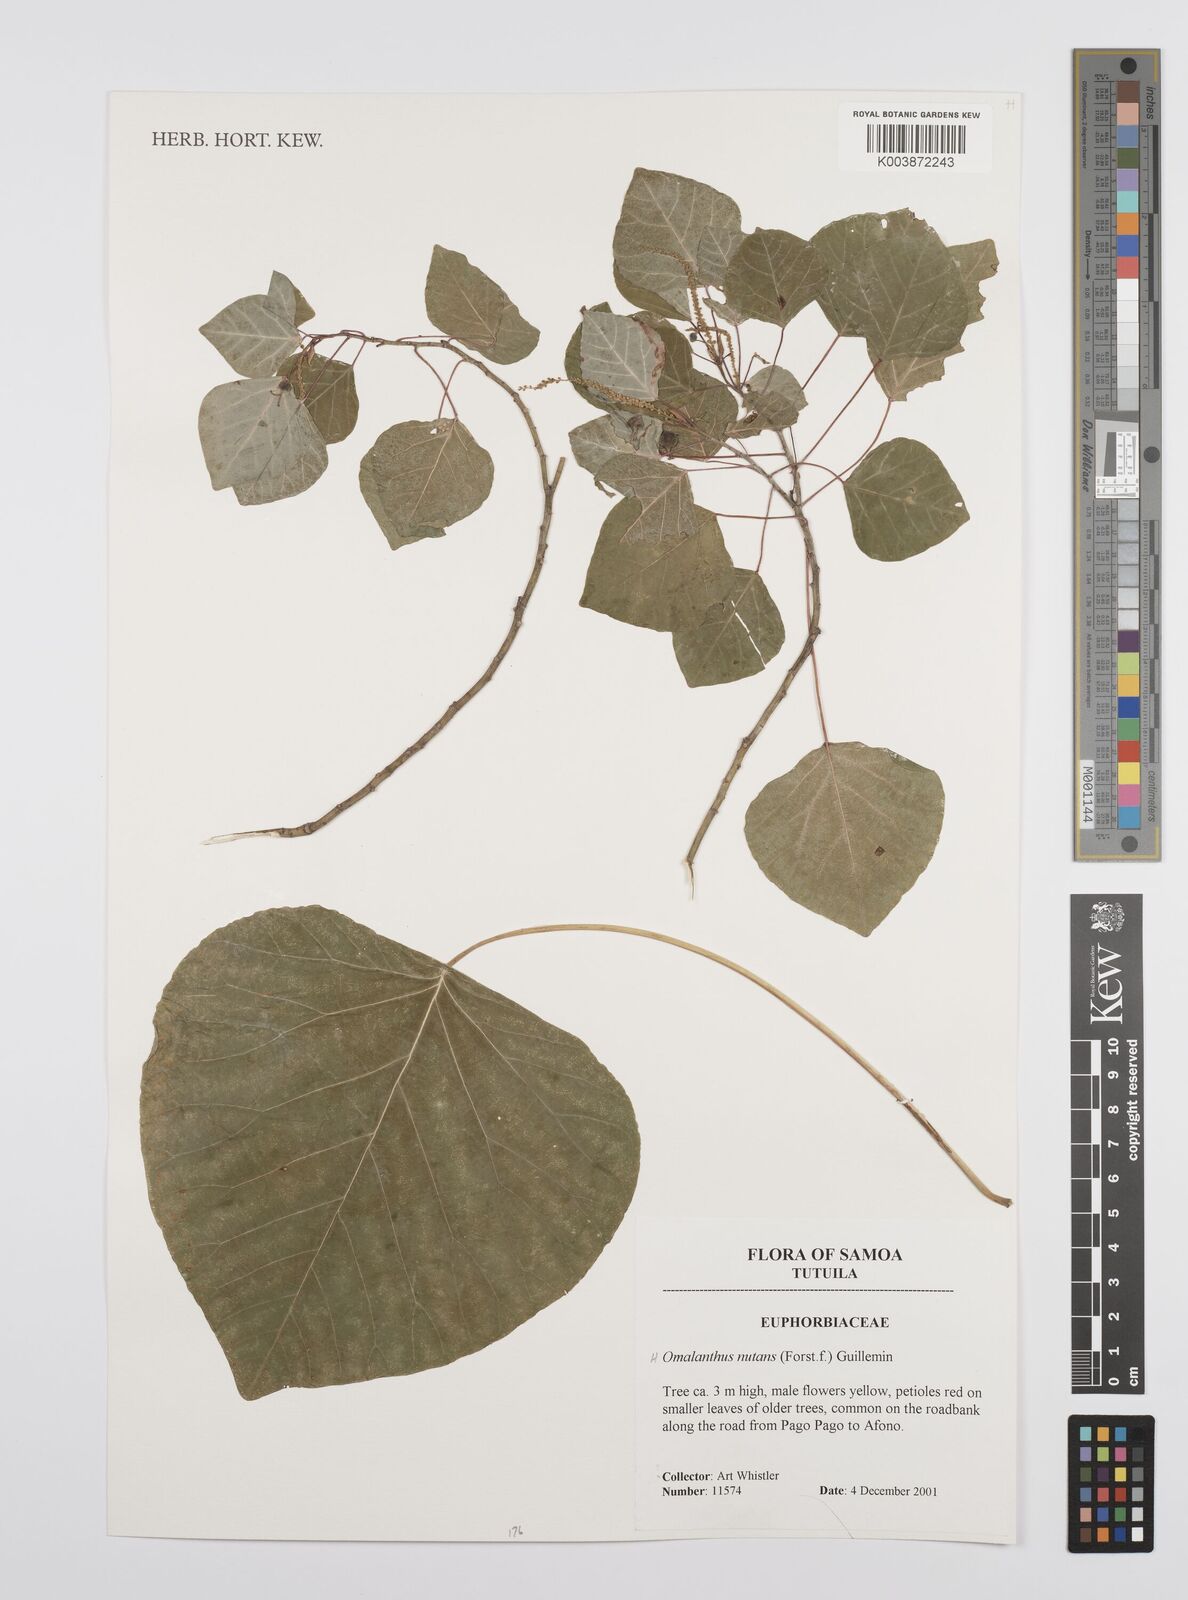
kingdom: Plantae
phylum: Tracheophyta
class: Magnoliopsida
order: Malpighiales
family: Euphorbiaceae
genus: Homalanthus
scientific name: Homalanthus nutans
